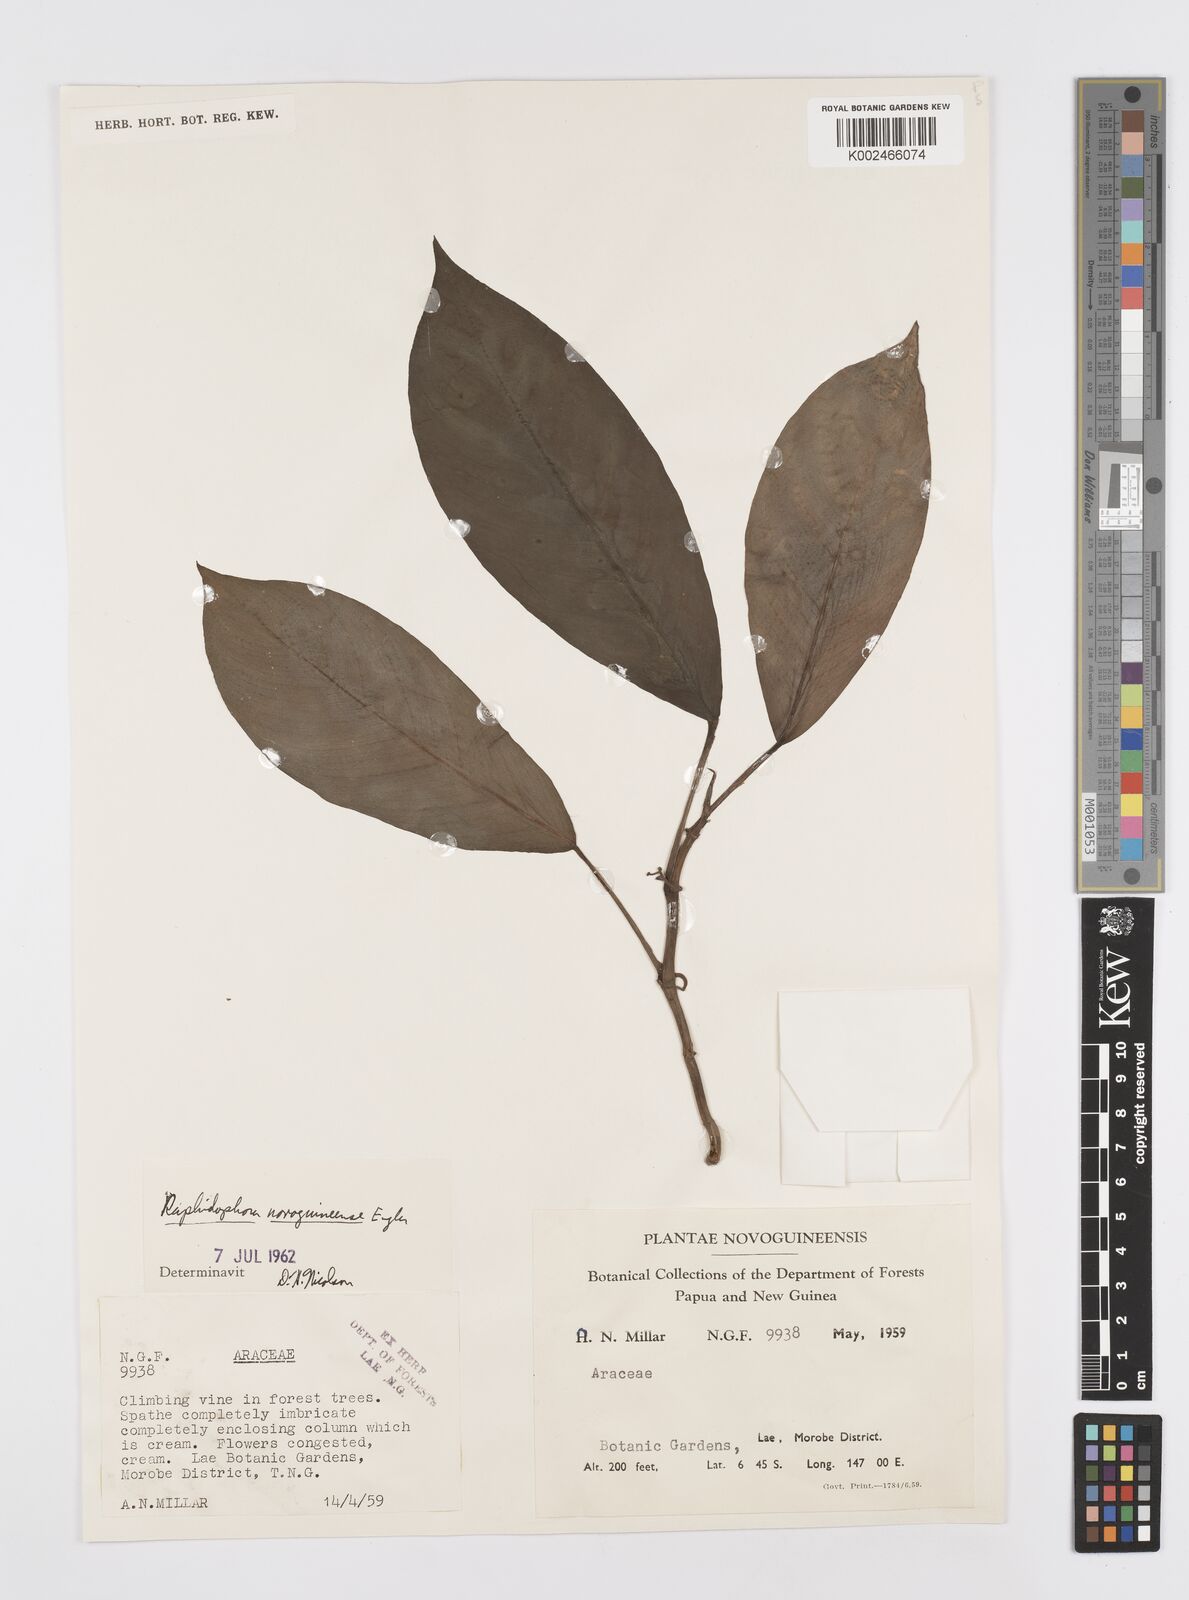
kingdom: Plantae
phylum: Tracheophyta
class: Liliopsida
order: Alismatales
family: Araceae
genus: Rhaphidophora
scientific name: Rhaphidophora neoguineensis
